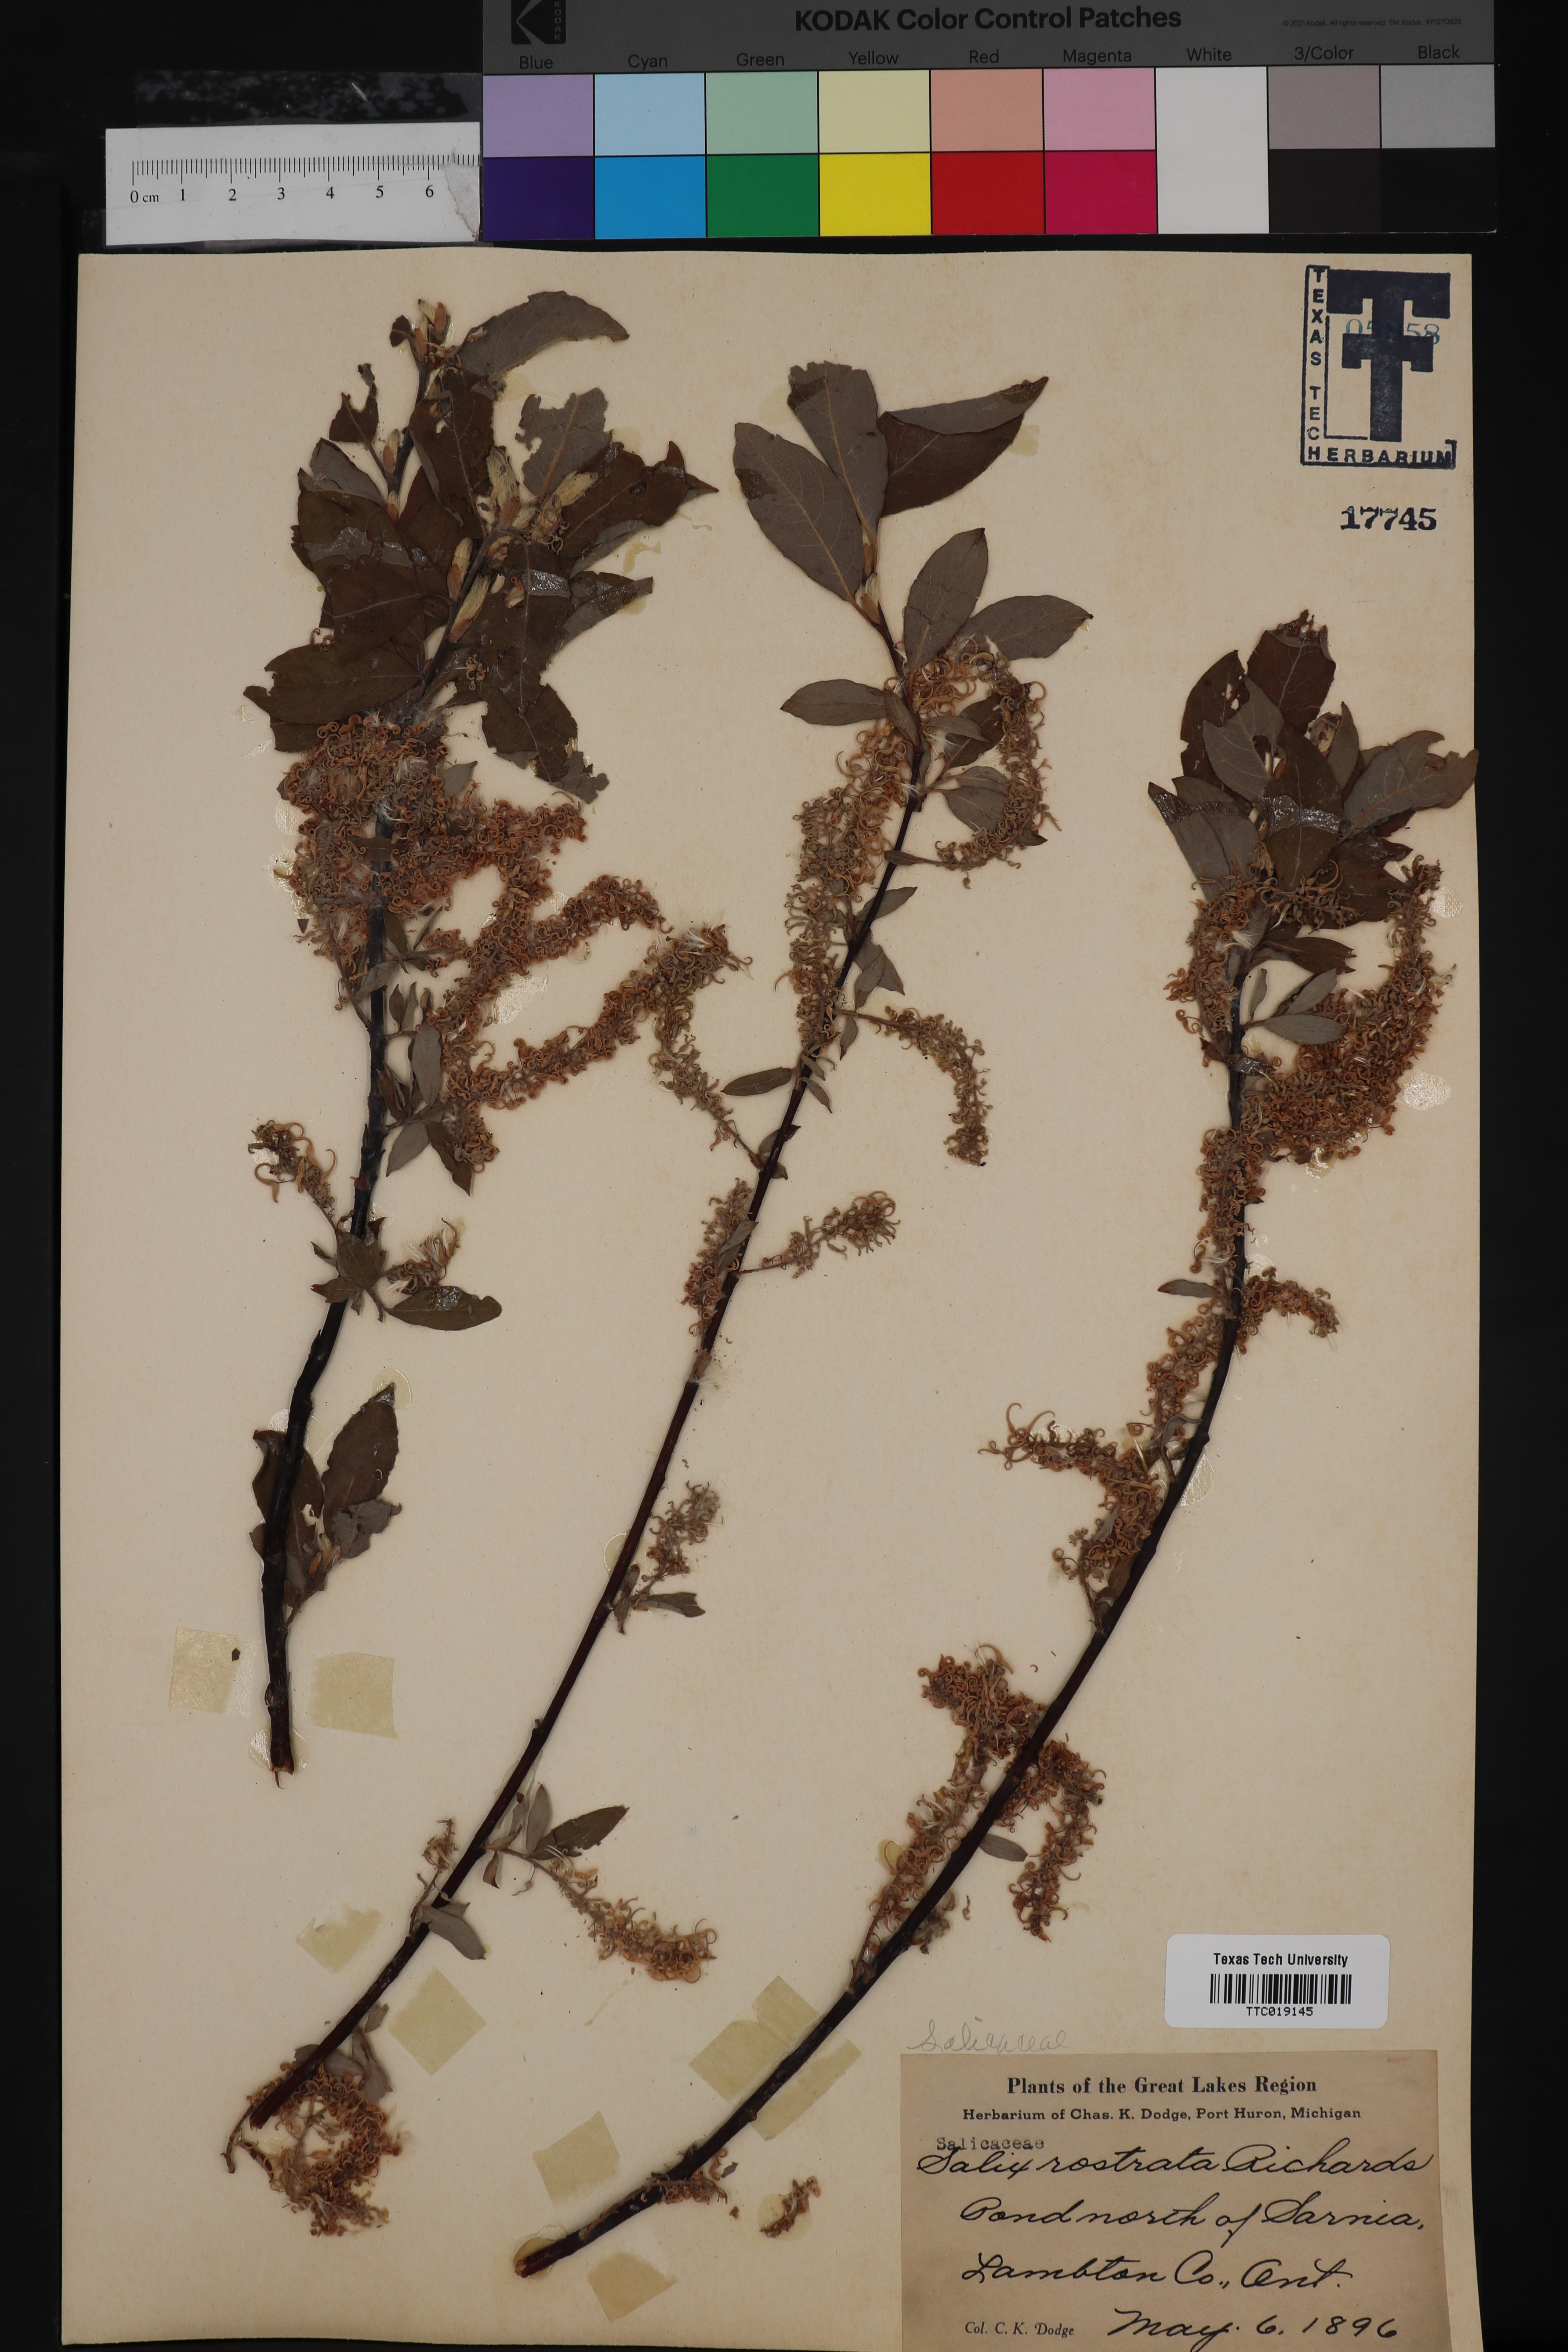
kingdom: Plantae
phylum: Tracheophyta
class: Magnoliopsida
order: Malpighiales
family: Salicaceae
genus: Salix
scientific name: Salix bebbiana
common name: Bebb's willow
